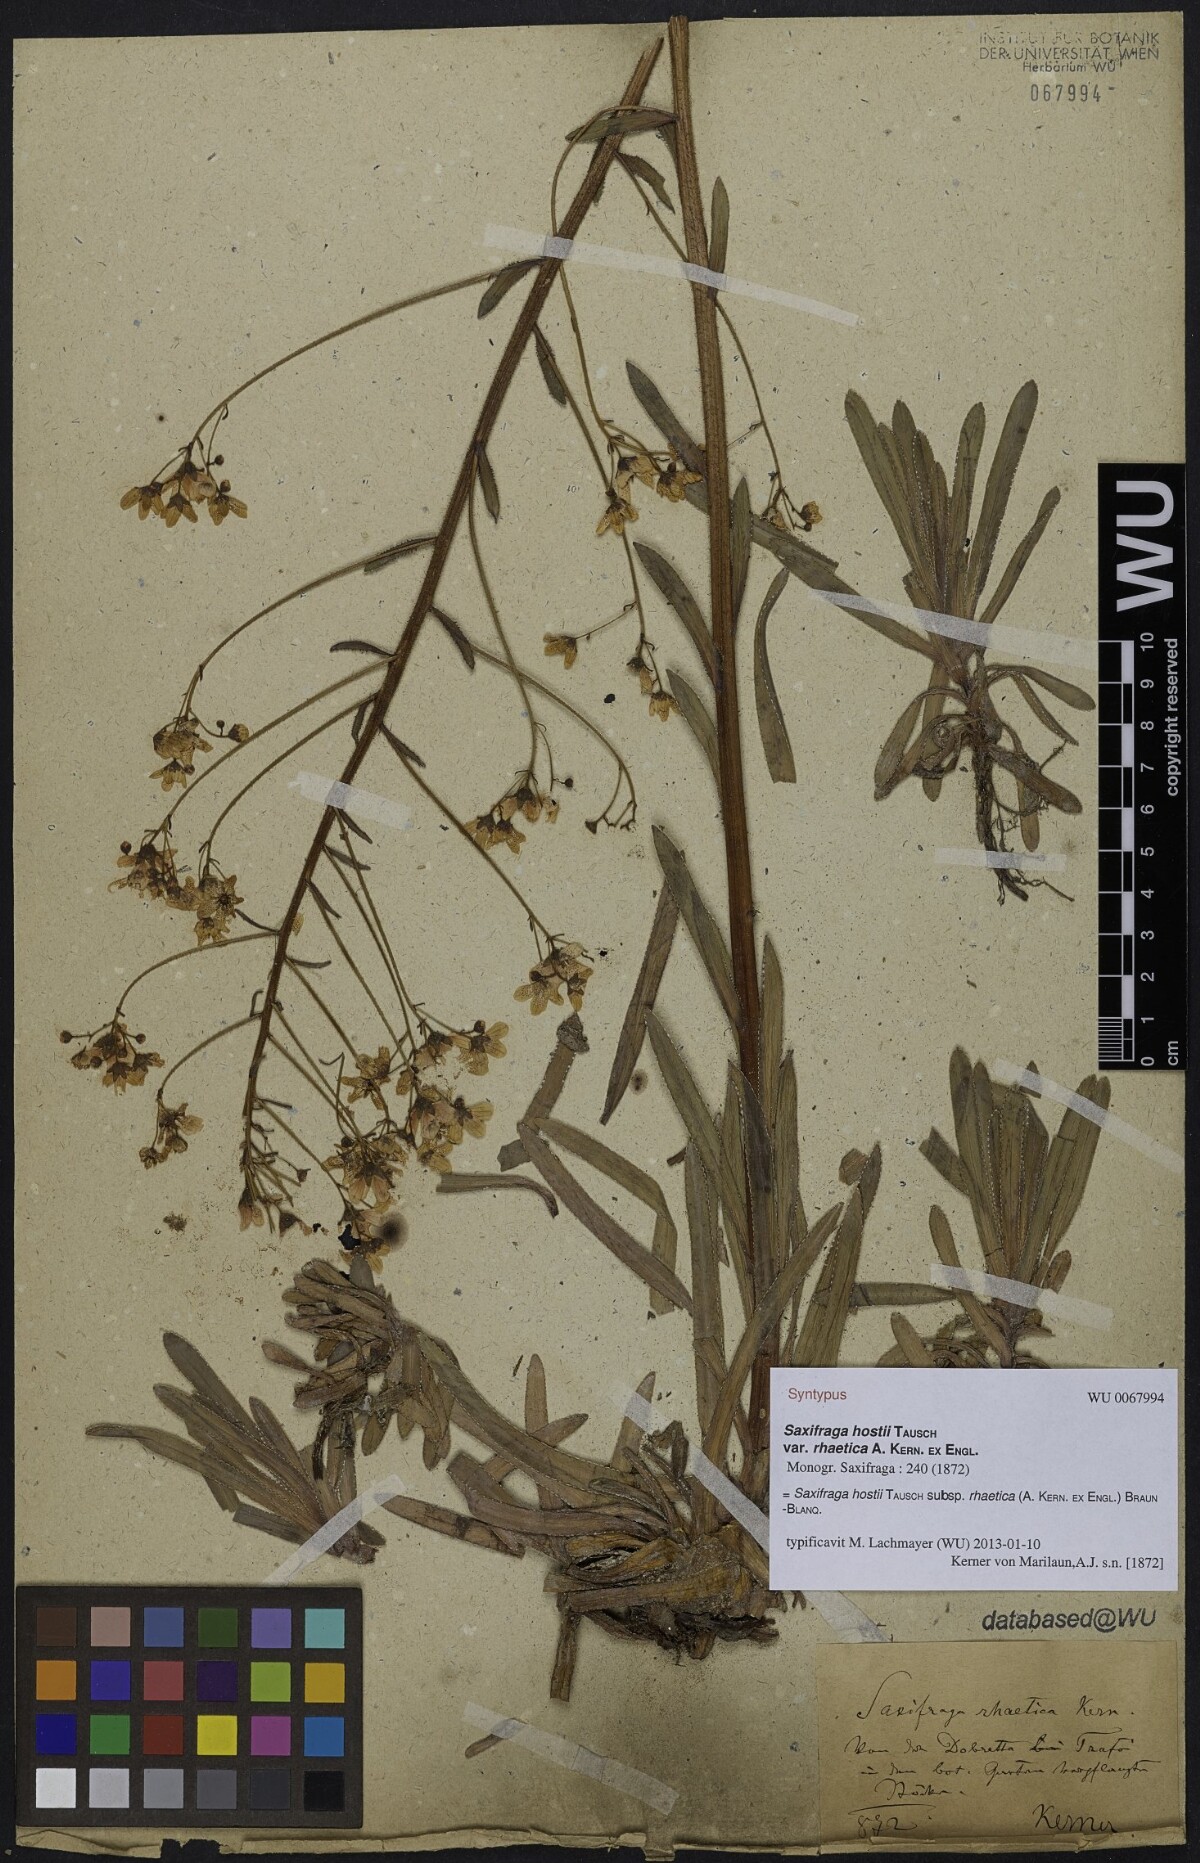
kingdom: Plantae
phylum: Tracheophyta
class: Magnoliopsida
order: Saxifragales
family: Saxifragaceae
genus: Saxifraga
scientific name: Saxifraga hostii
